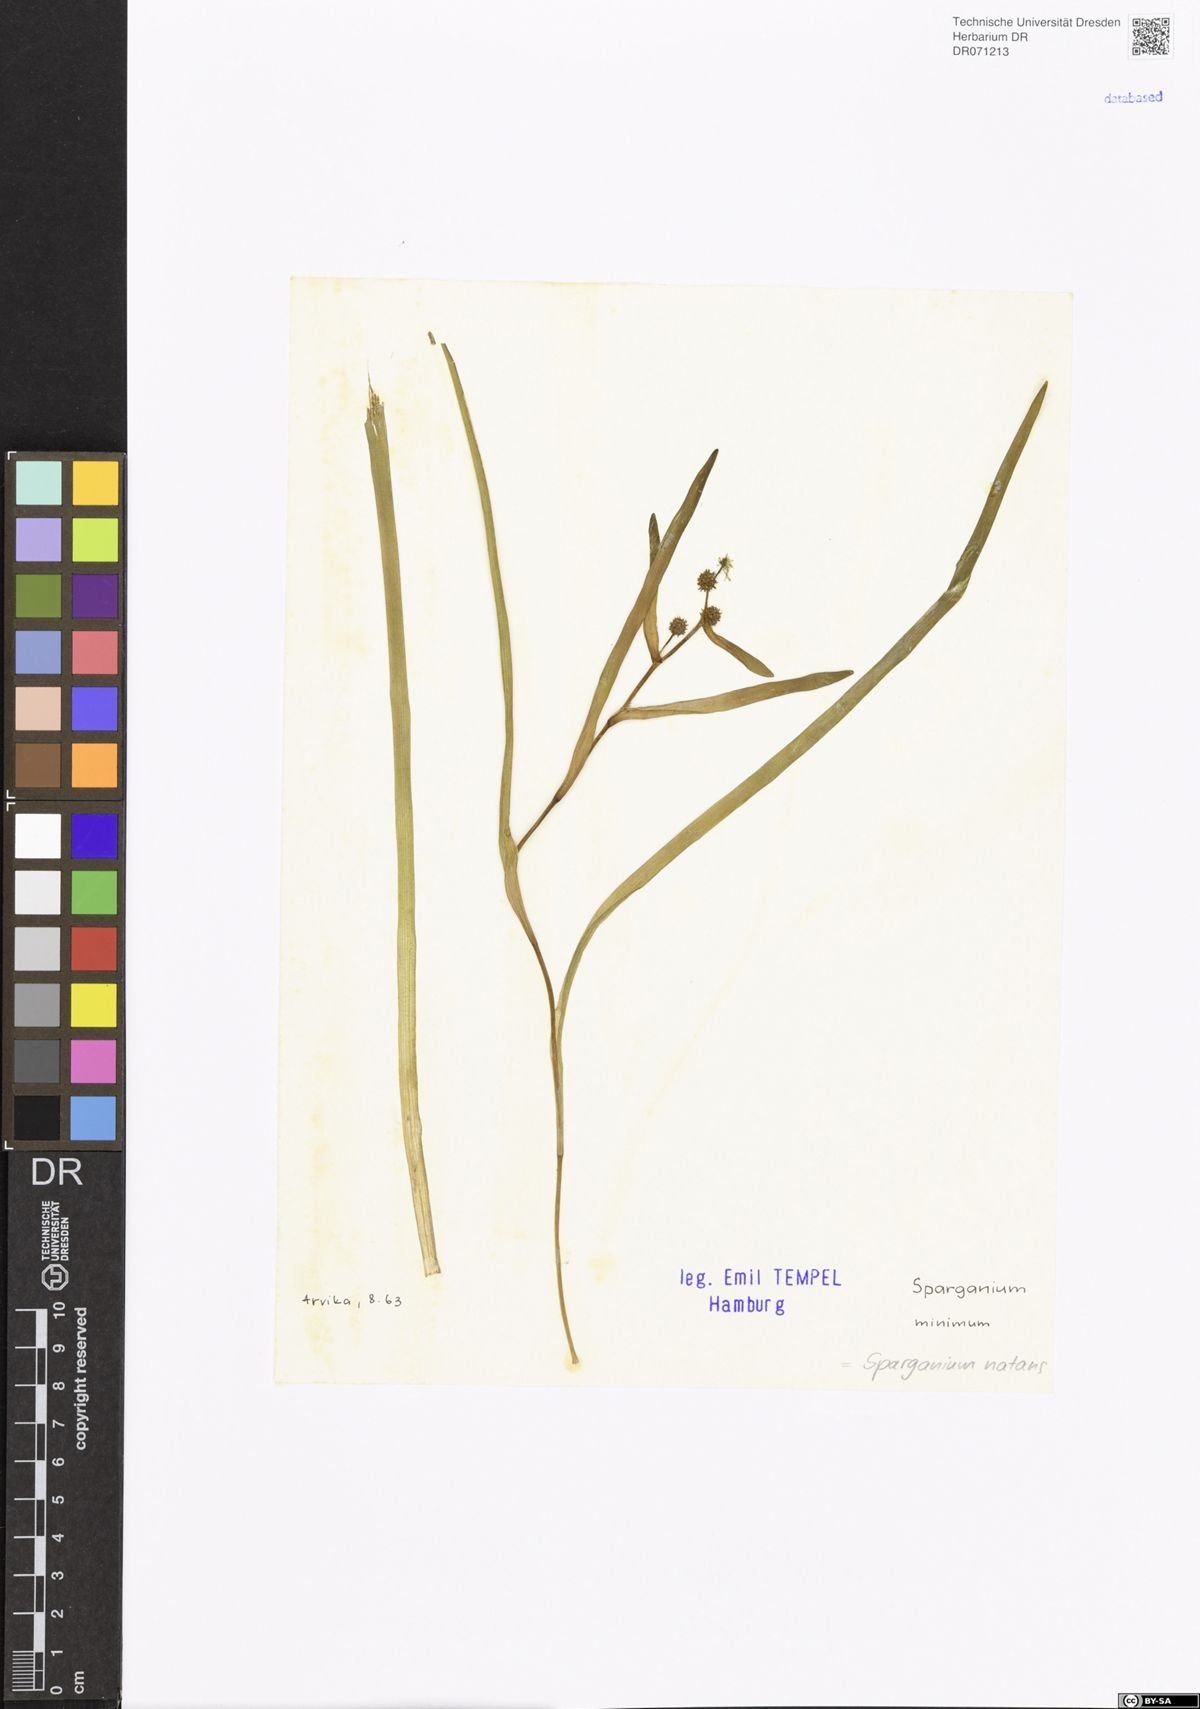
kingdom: Plantae
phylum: Tracheophyta
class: Liliopsida
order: Poales
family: Typhaceae
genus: Sparganium
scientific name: Sparganium natans
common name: Least bur-reed
